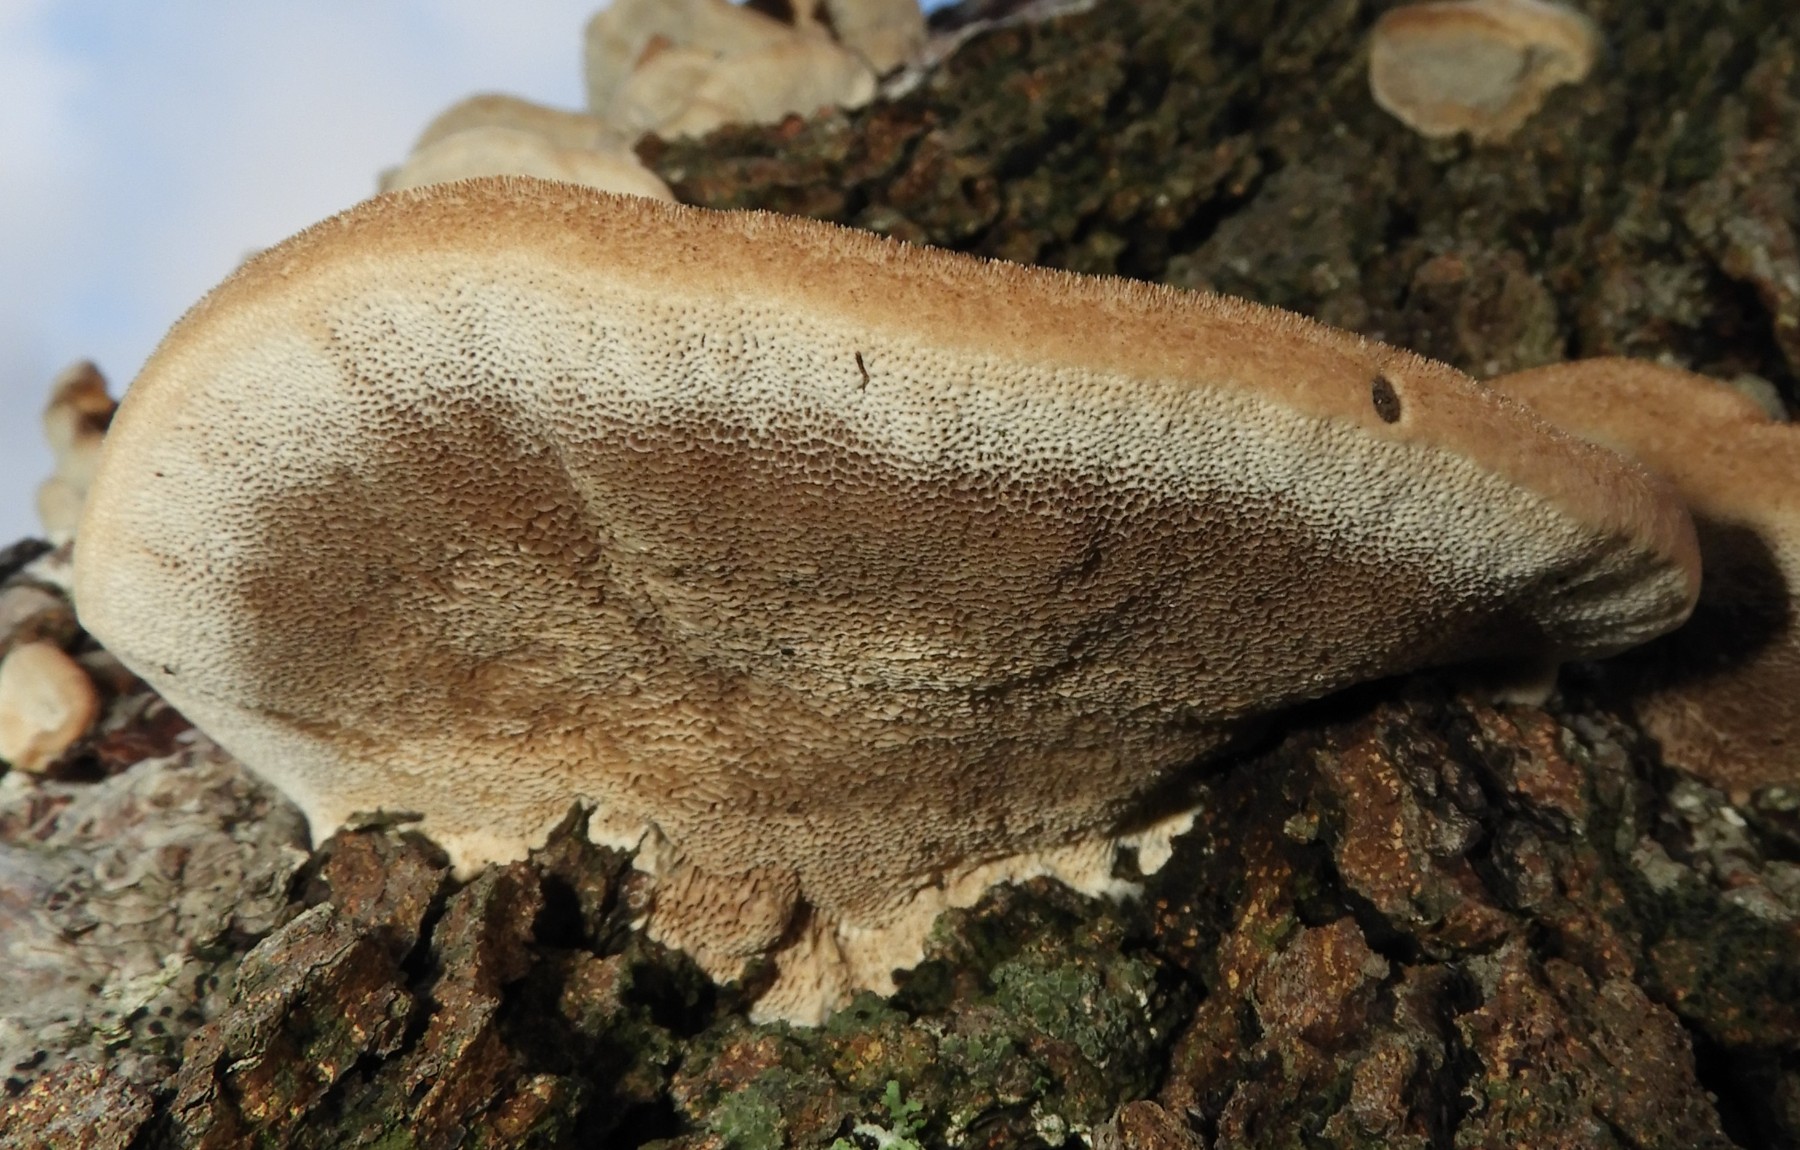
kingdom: Fungi
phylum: Basidiomycota
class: Agaricomycetes
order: Polyporales
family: Polyporaceae
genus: Trametes
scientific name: Trametes hirsuta
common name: håret læderporesvamp
